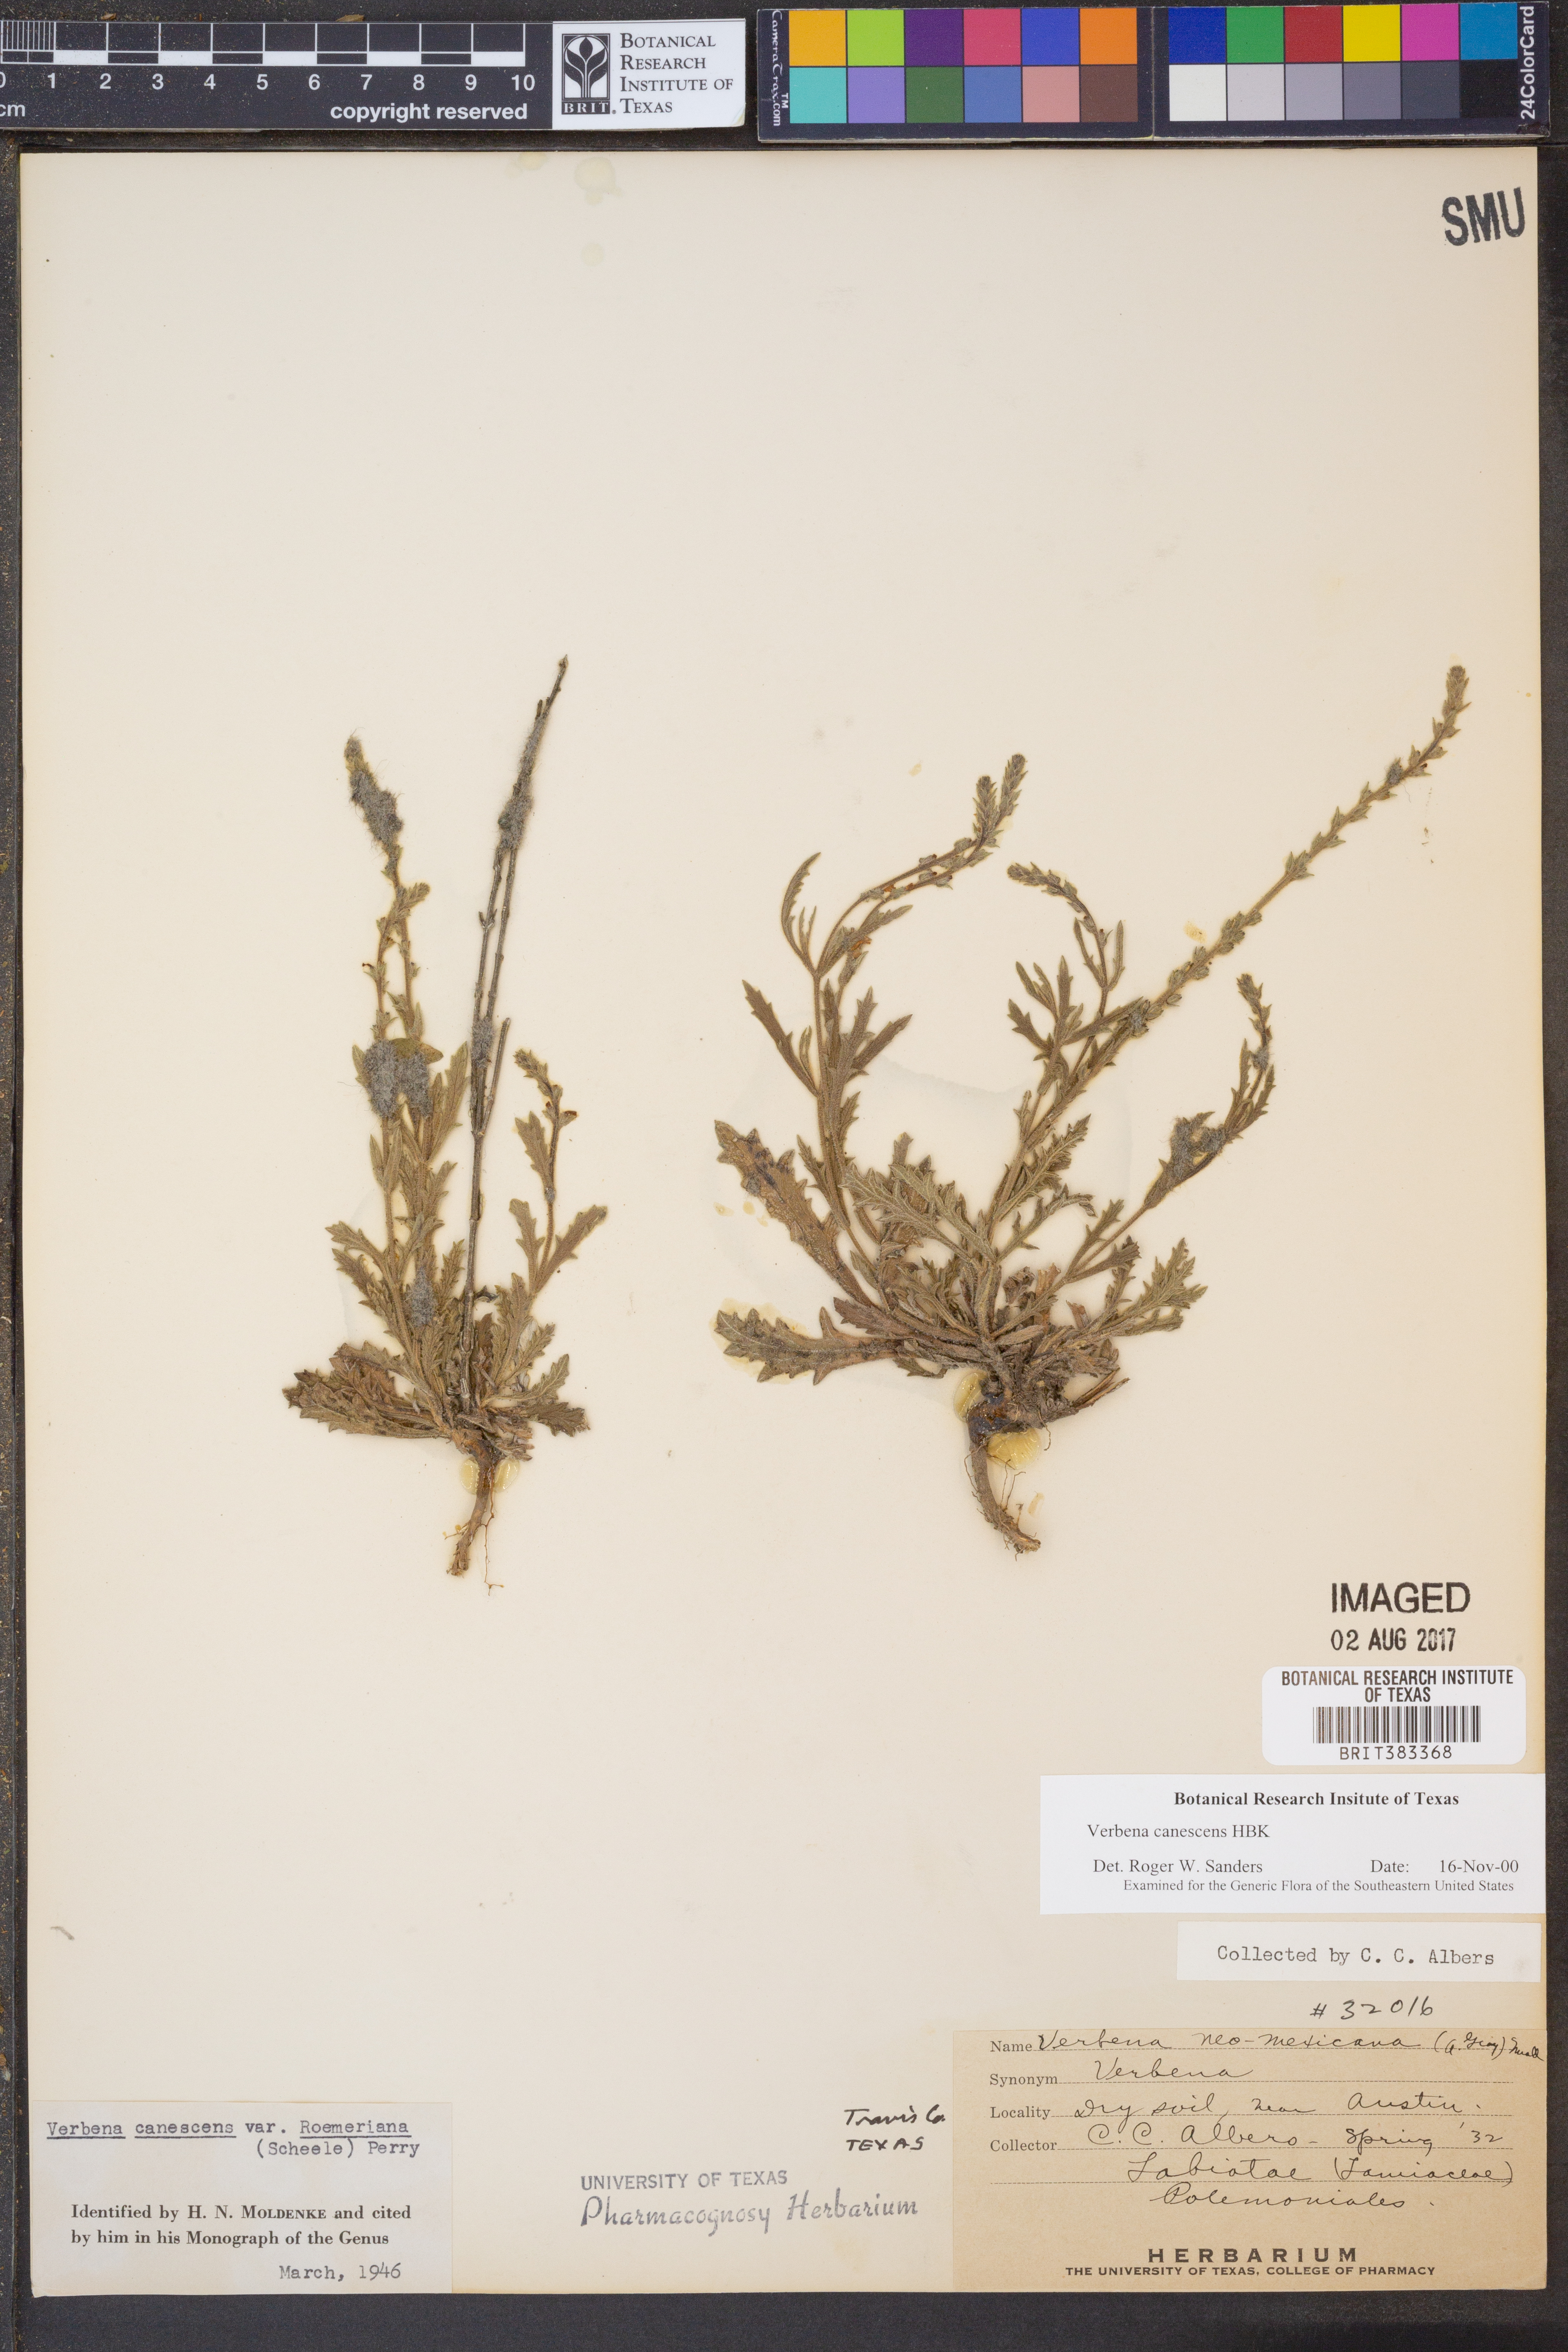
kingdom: Plantae
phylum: Tracheophyta
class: Magnoliopsida
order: Lamiales
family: Verbenaceae
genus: Verbena
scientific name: Verbena canescens
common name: Gray vervain
